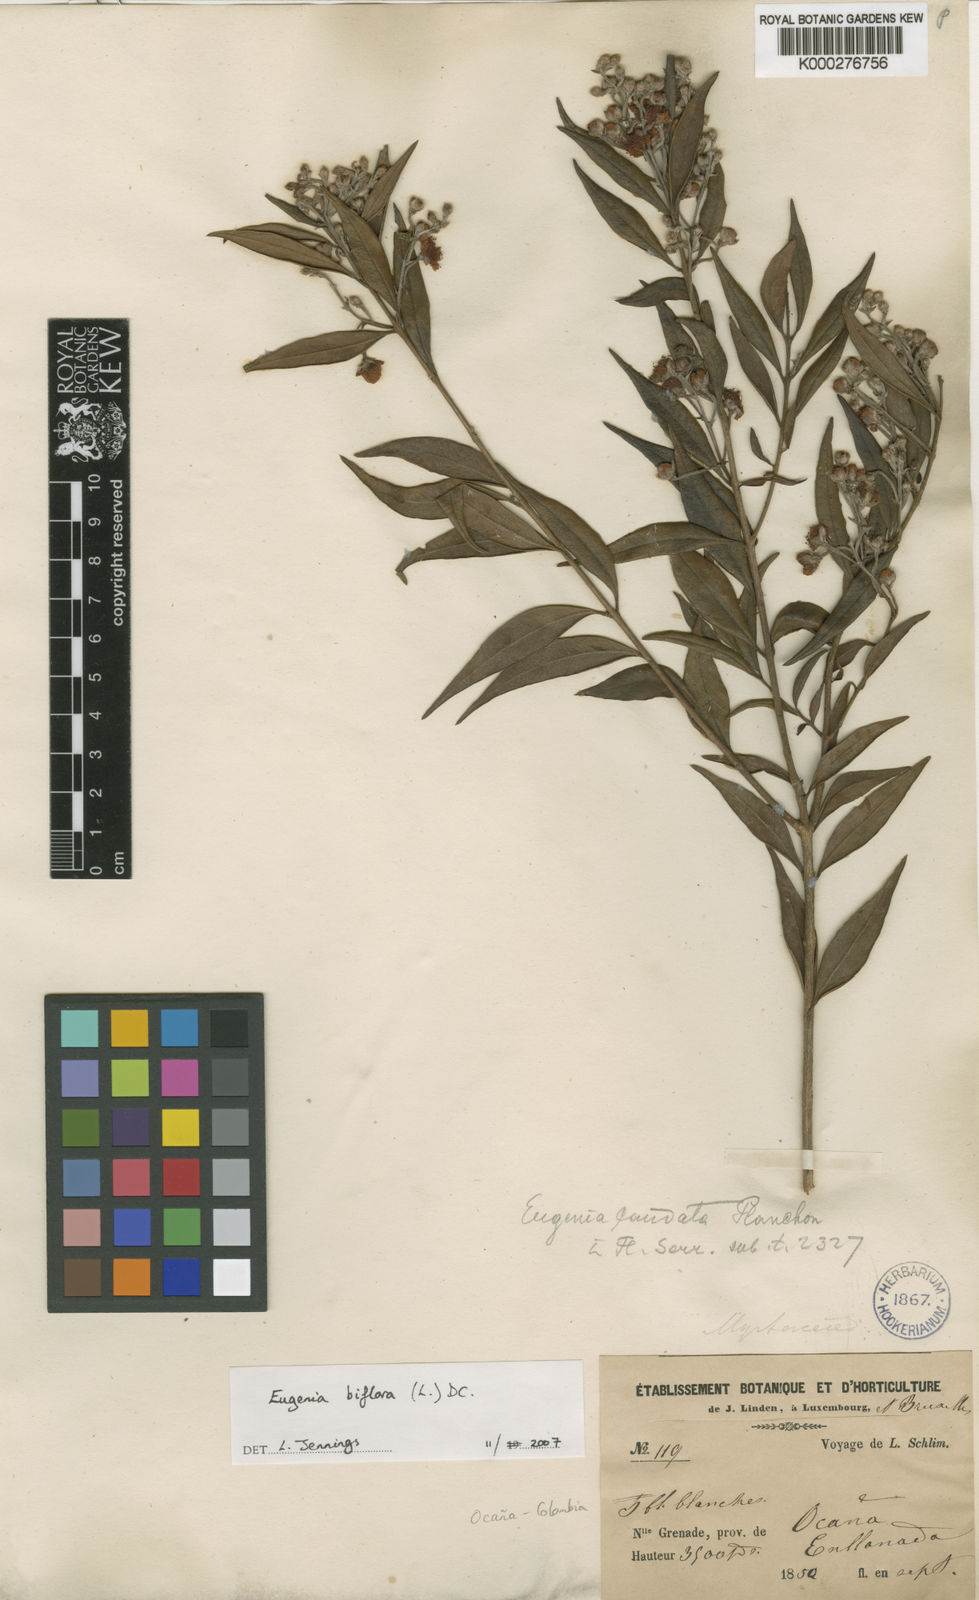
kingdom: Plantae
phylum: Tracheophyta
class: Magnoliopsida
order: Myrtales
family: Myrtaceae
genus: Eugenia
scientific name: Eugenia biflora
